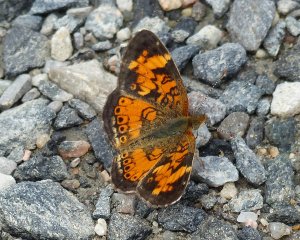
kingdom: Animalia
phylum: Arthropoda
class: Insecta
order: Lepidoptera
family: Nymphalidae
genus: Phyciodes
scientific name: Phyciodes tharos
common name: Northern Crescent
